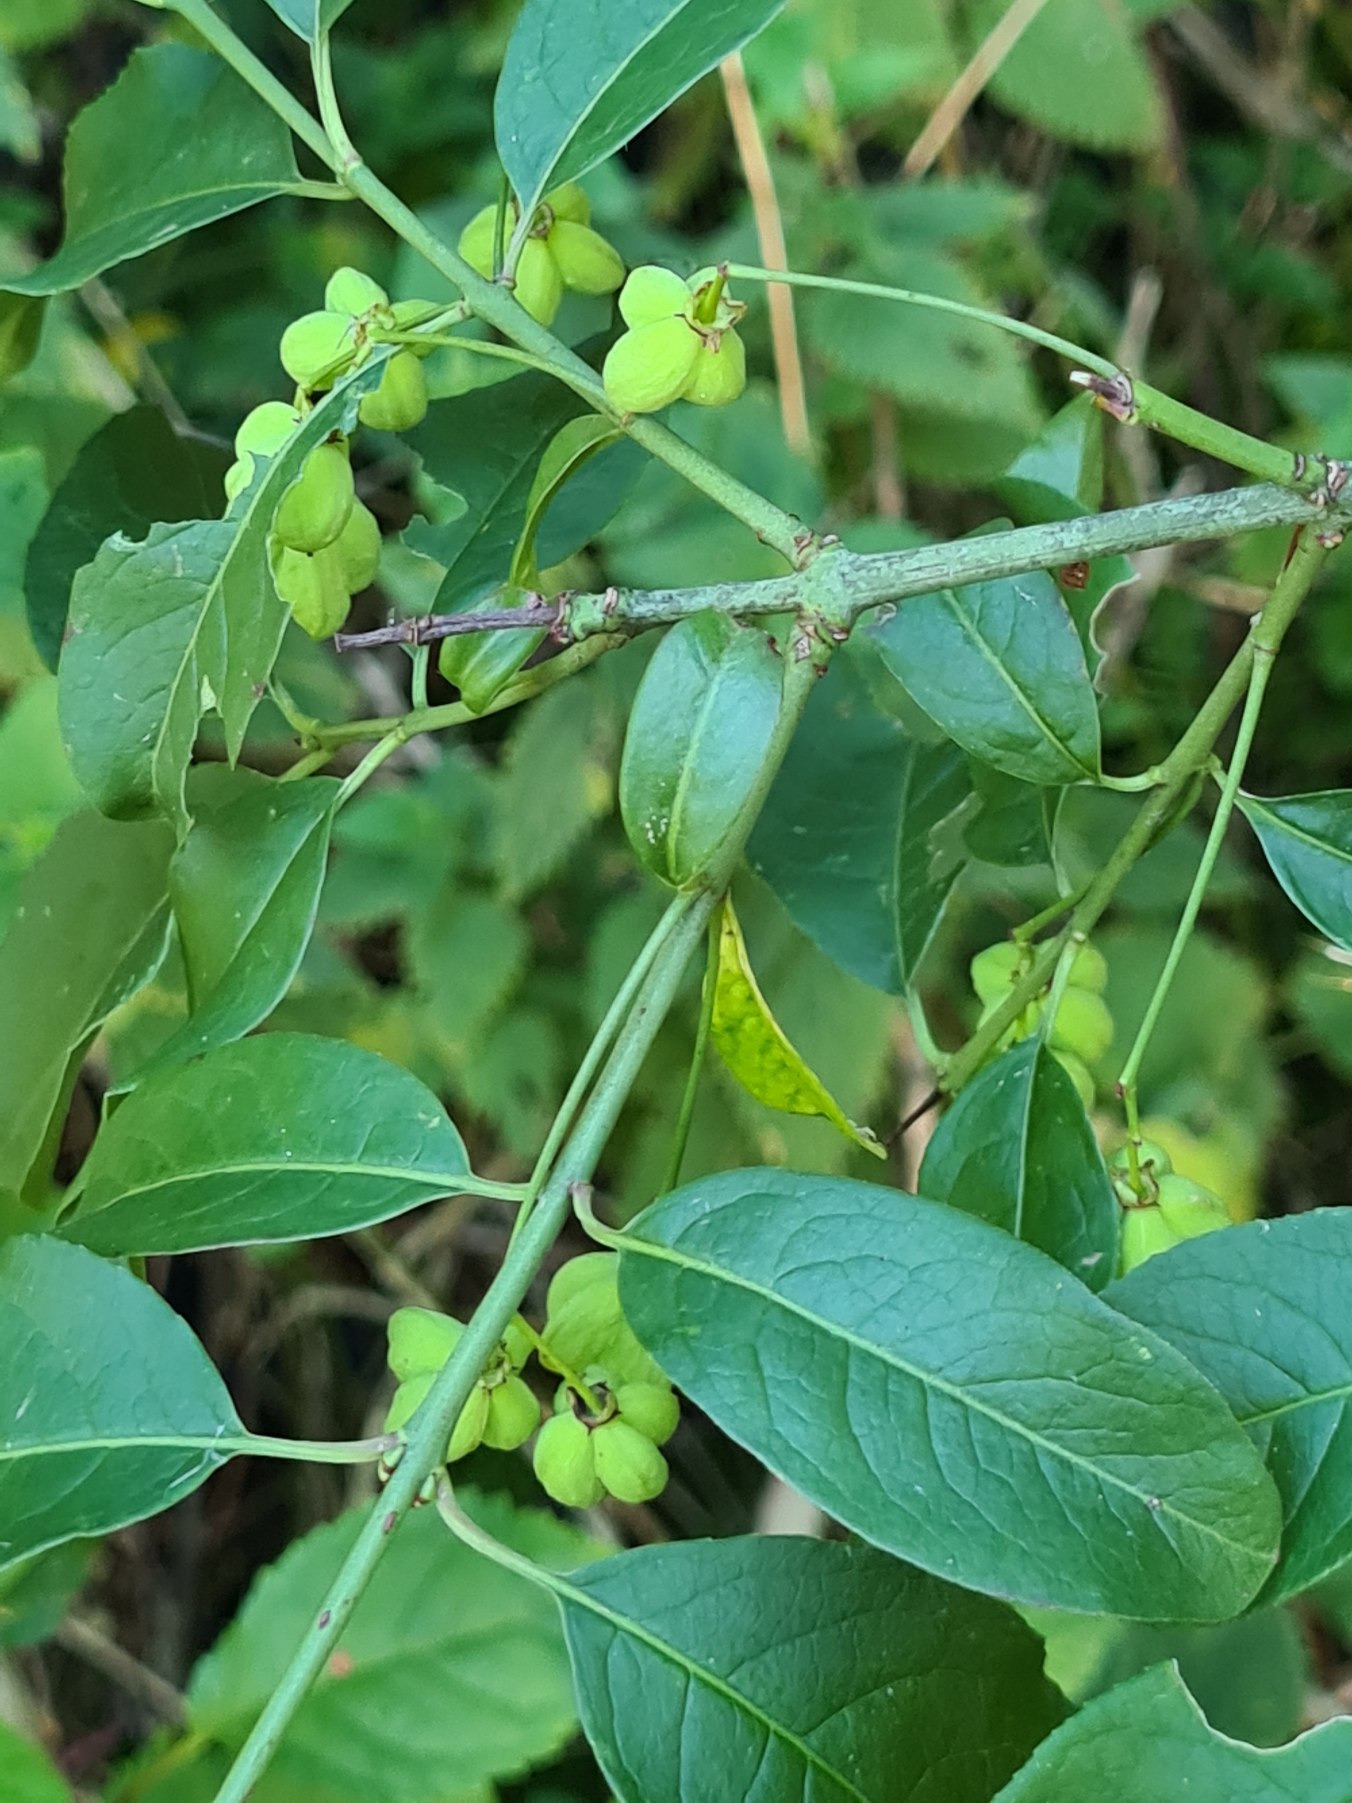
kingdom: Plantae
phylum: Tracheophyta
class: Magnoliopsida
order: Celastrales
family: Celastraceae
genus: Euonymus
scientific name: Euonymus europaeus
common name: Benved
